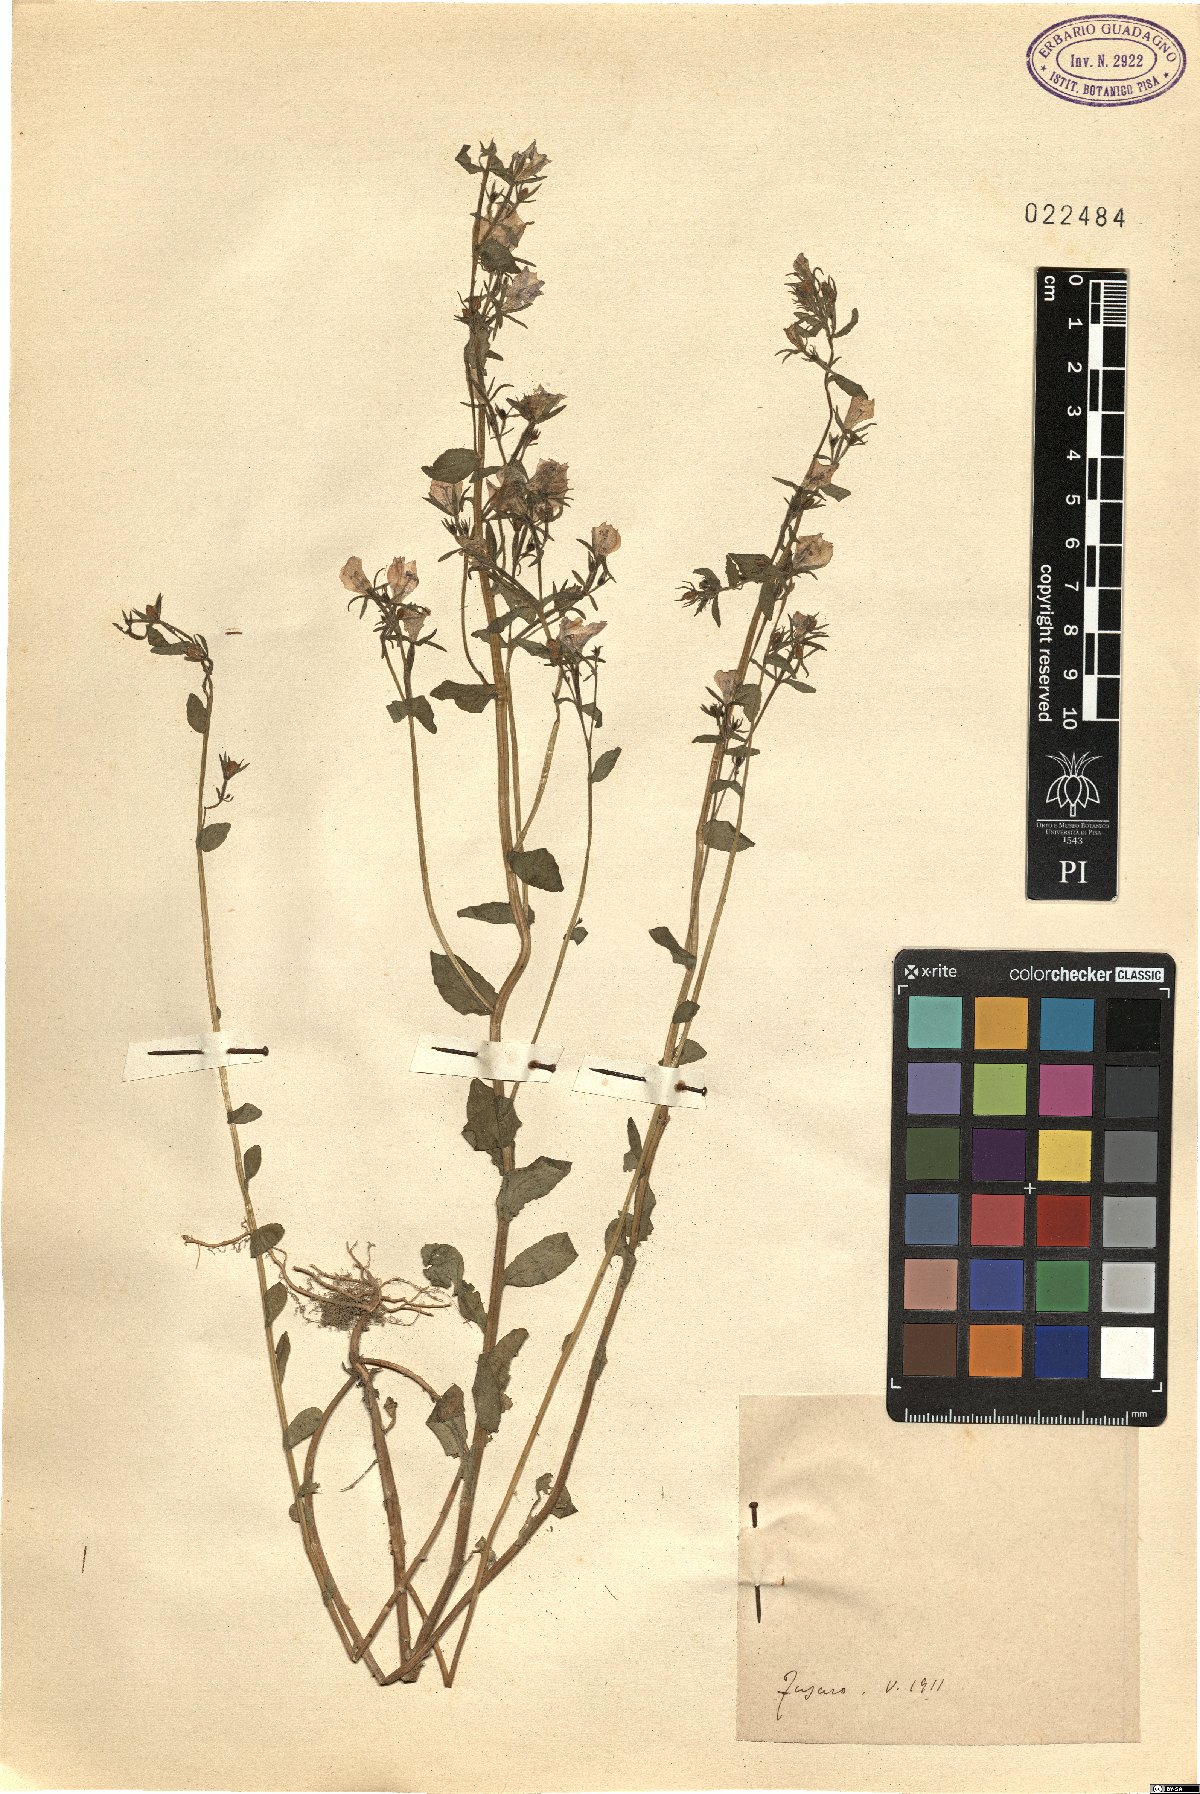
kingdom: Plantae
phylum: Tracheophyta
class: Magnoliopsida
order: Asterales
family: Campanulaceae
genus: Specularia
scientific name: Specularia
